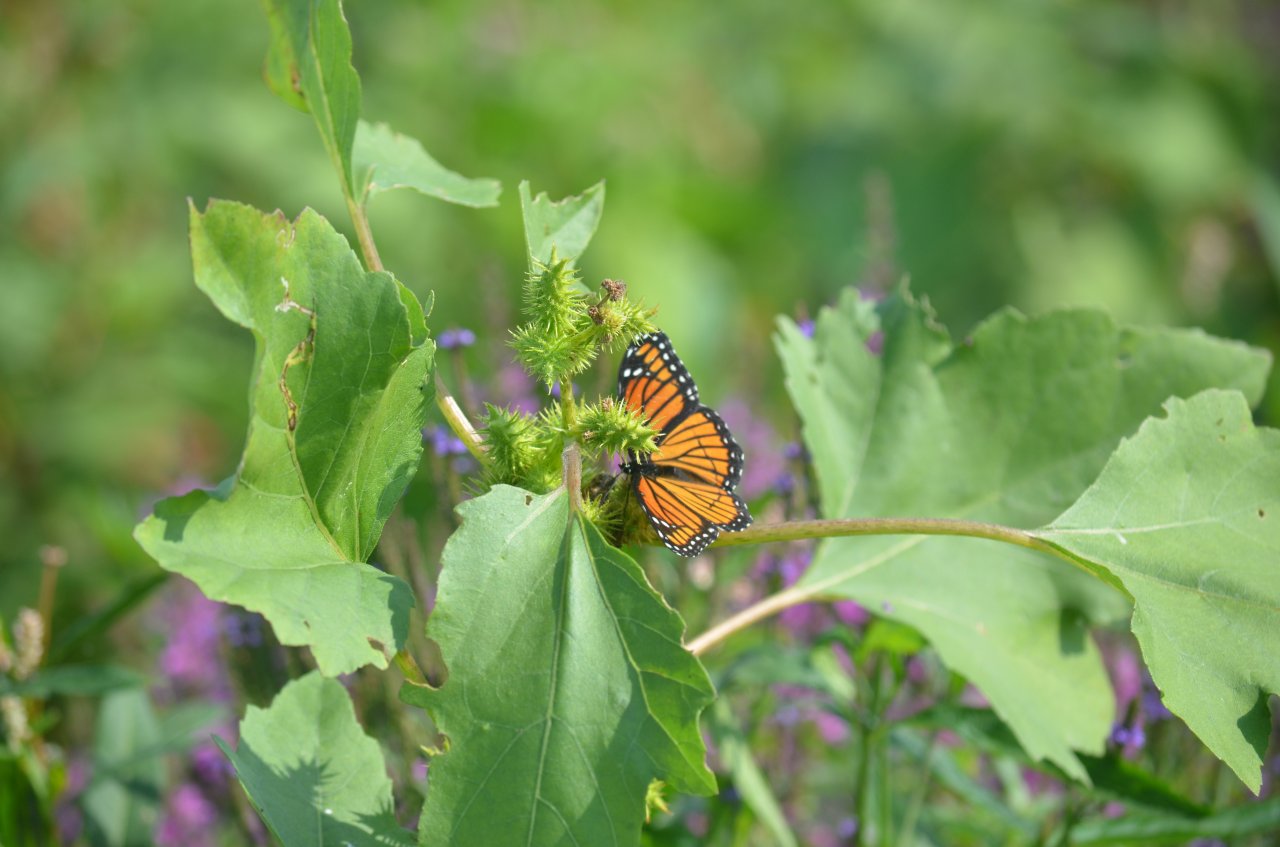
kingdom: Animalia
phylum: Arthropoda
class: Insecta
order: Lepidoptera
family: Nymphalidae
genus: Limenitis
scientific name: Limenitis archippus
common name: Viceroy
